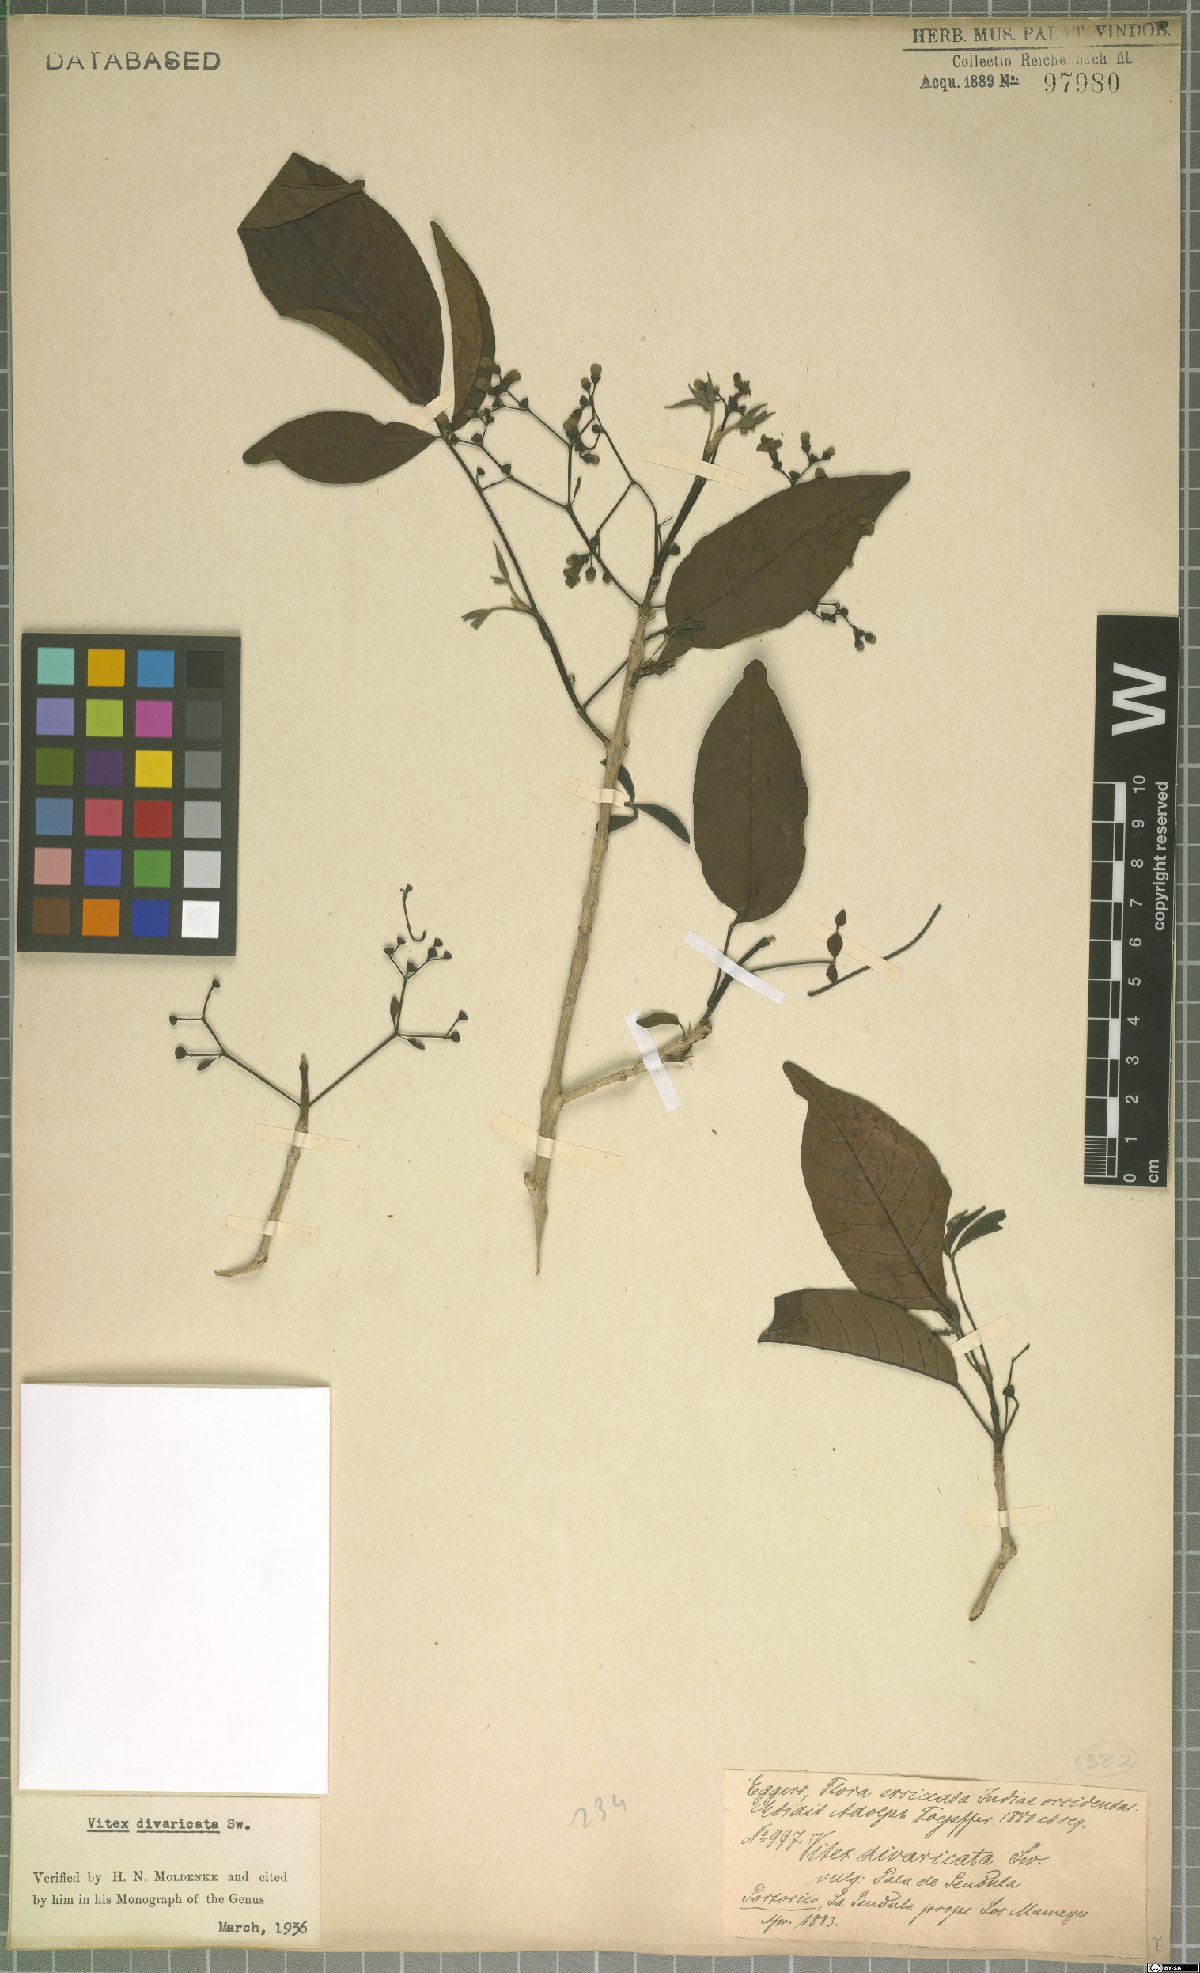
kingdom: Plantae
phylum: Tracheophyta
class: Magnoliopsida
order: Lamiales
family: Lamiaceae
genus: Vitex
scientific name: Vitex divaricata
